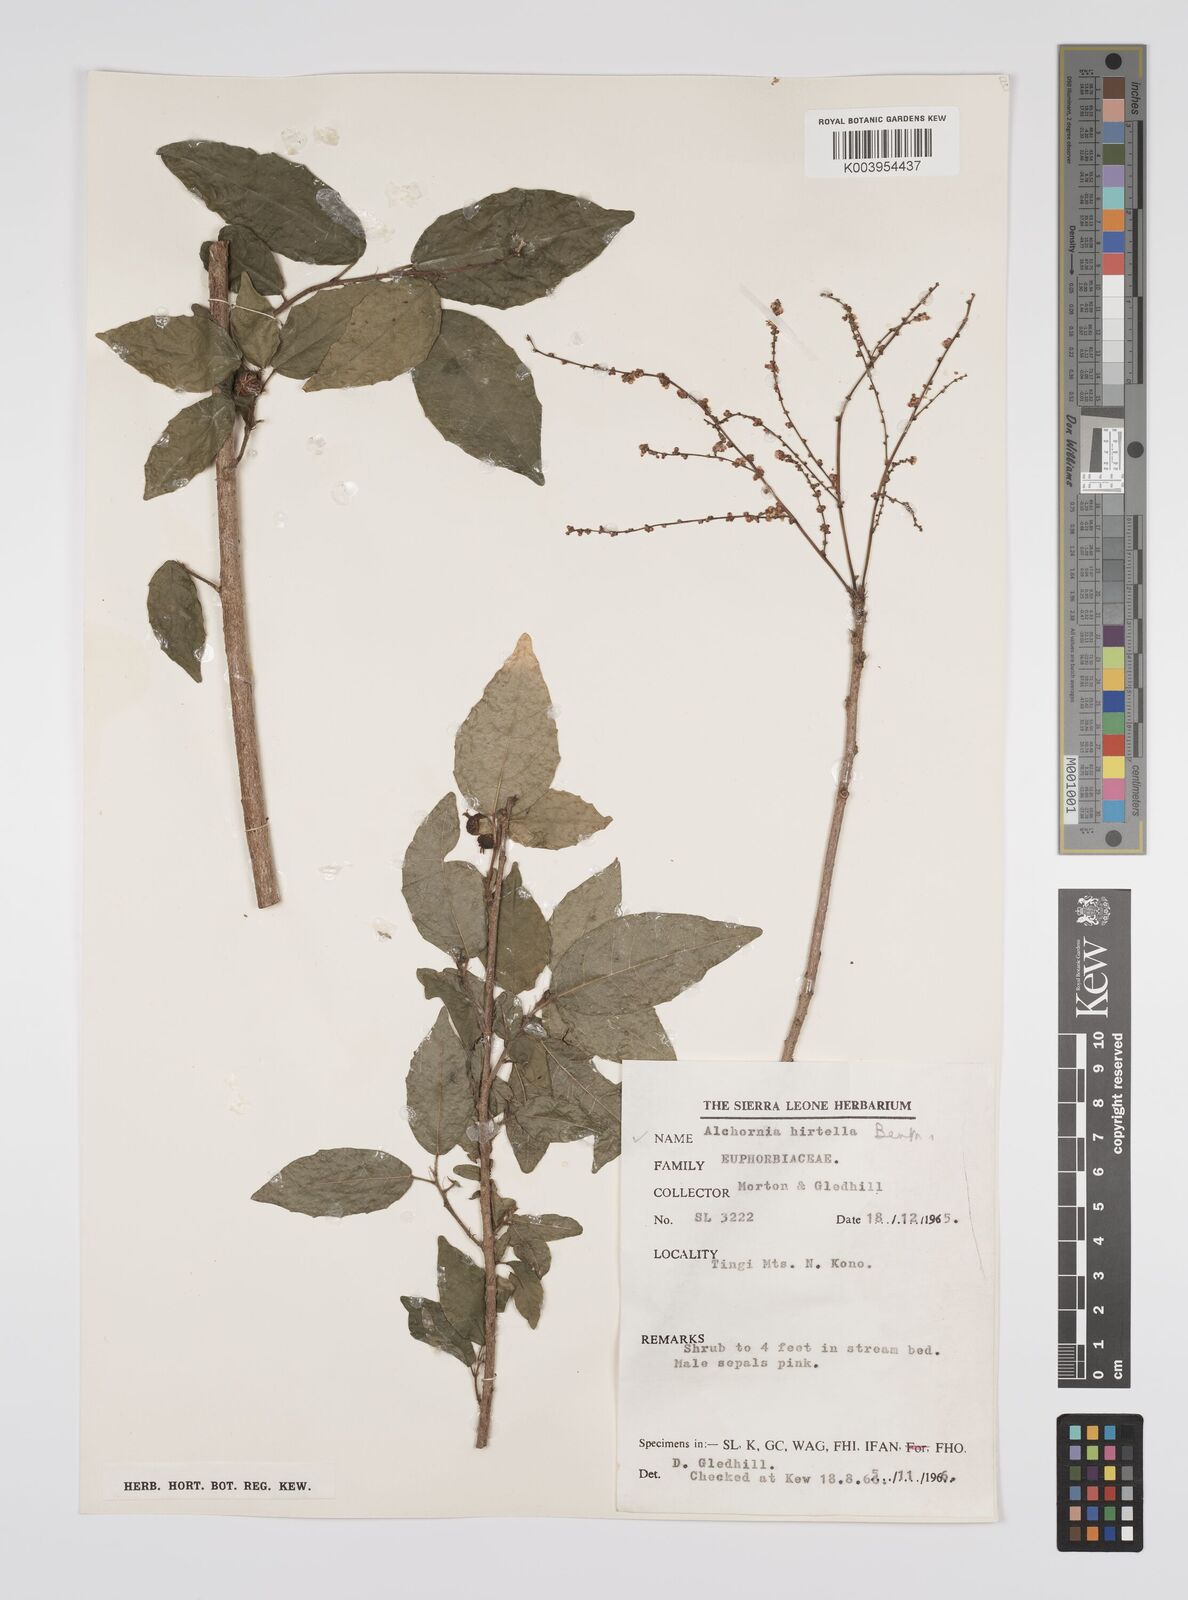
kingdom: Plantae
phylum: Tracheophyta
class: Magnoliopsida
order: Malpighiales
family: Euphorbiaceae
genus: Alchornea
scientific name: Alchornea hirtella
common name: Forest bead-string
